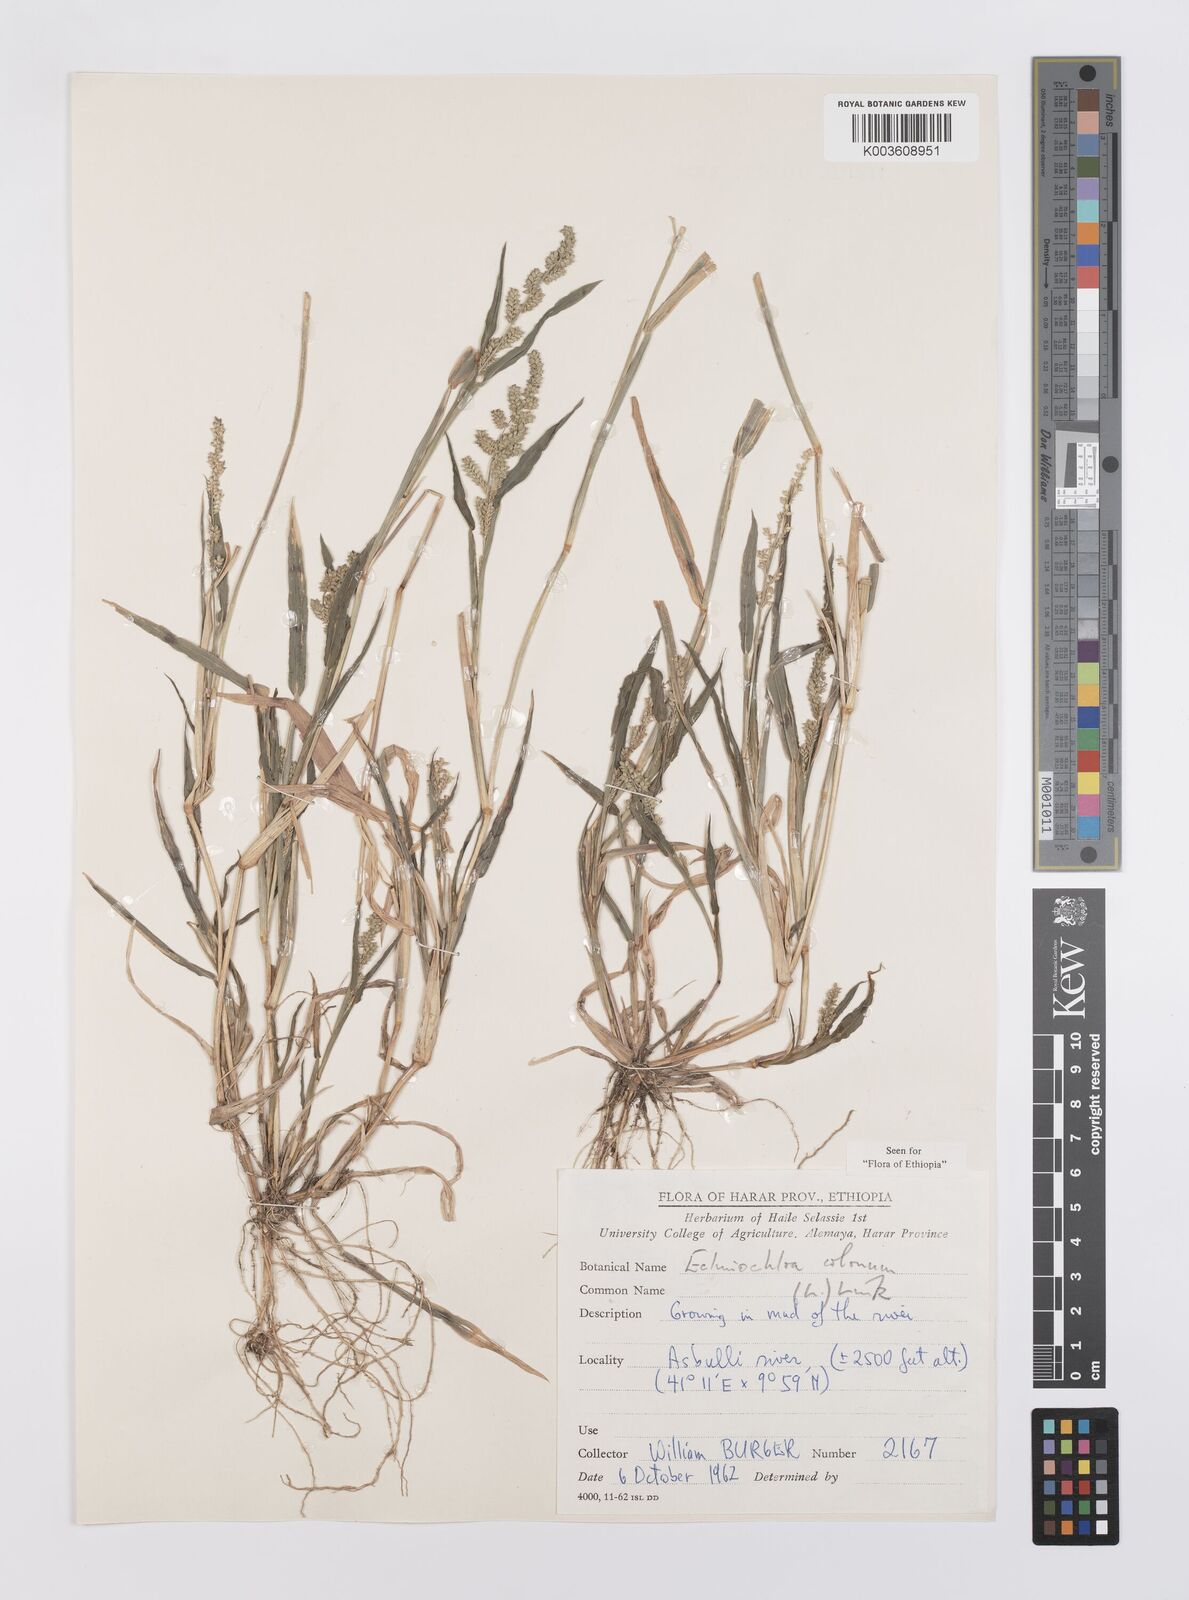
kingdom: Plantae
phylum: Tracheophyta
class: Liliopsida
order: Poales
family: Poaceae
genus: Echinochloa
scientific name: Echinochloa colonum
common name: Jungle rice
